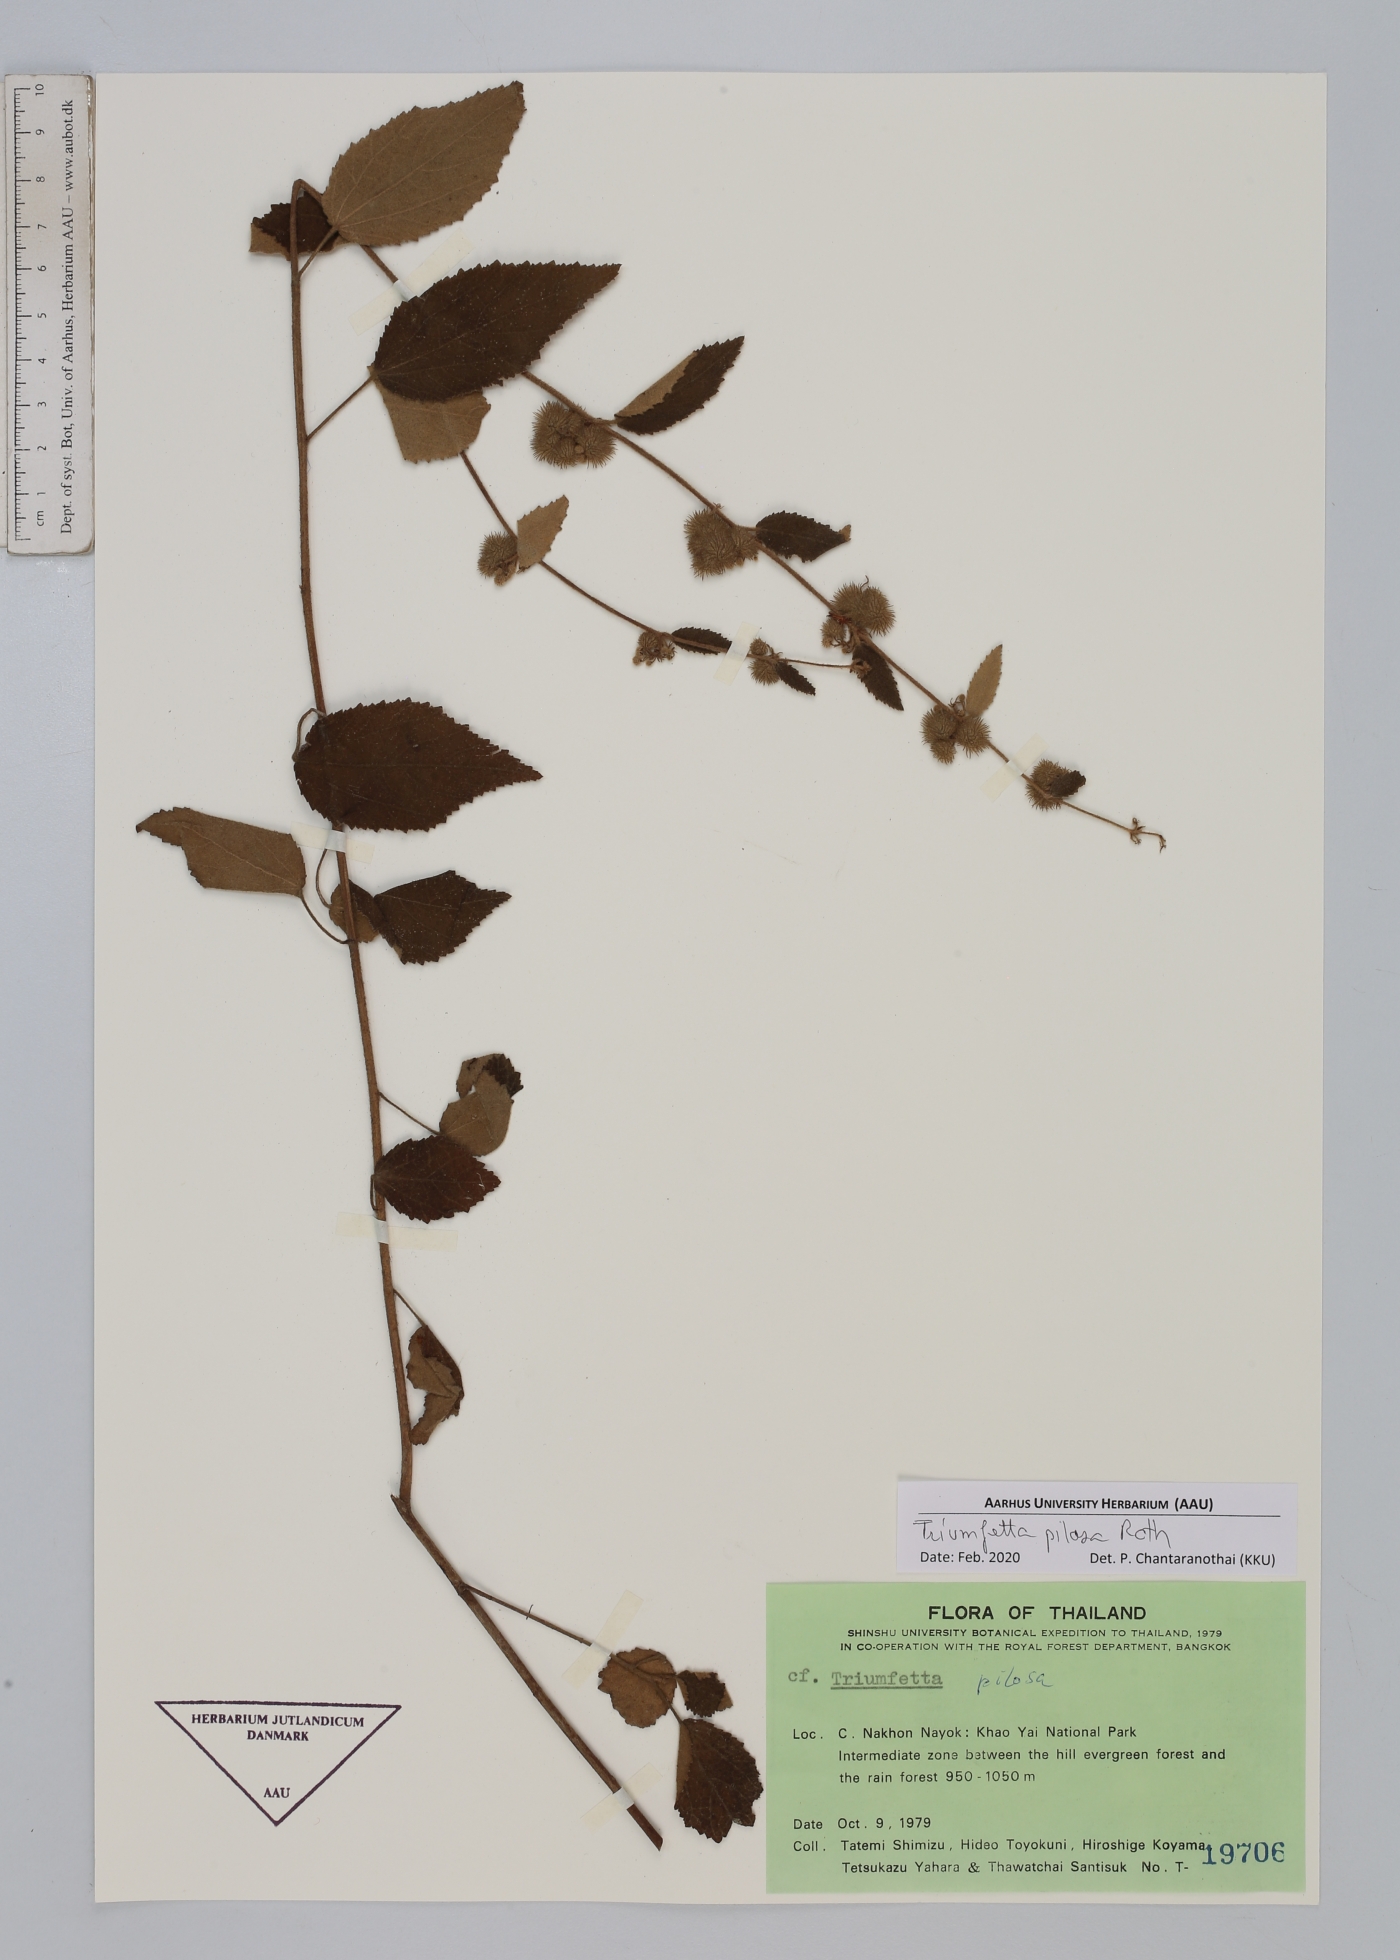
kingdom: Plantae
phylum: Tracheophyta
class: Magnoliopsida
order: Malvales
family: Malvaceae
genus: Triumfetta
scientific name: Triumfetta pilosa
